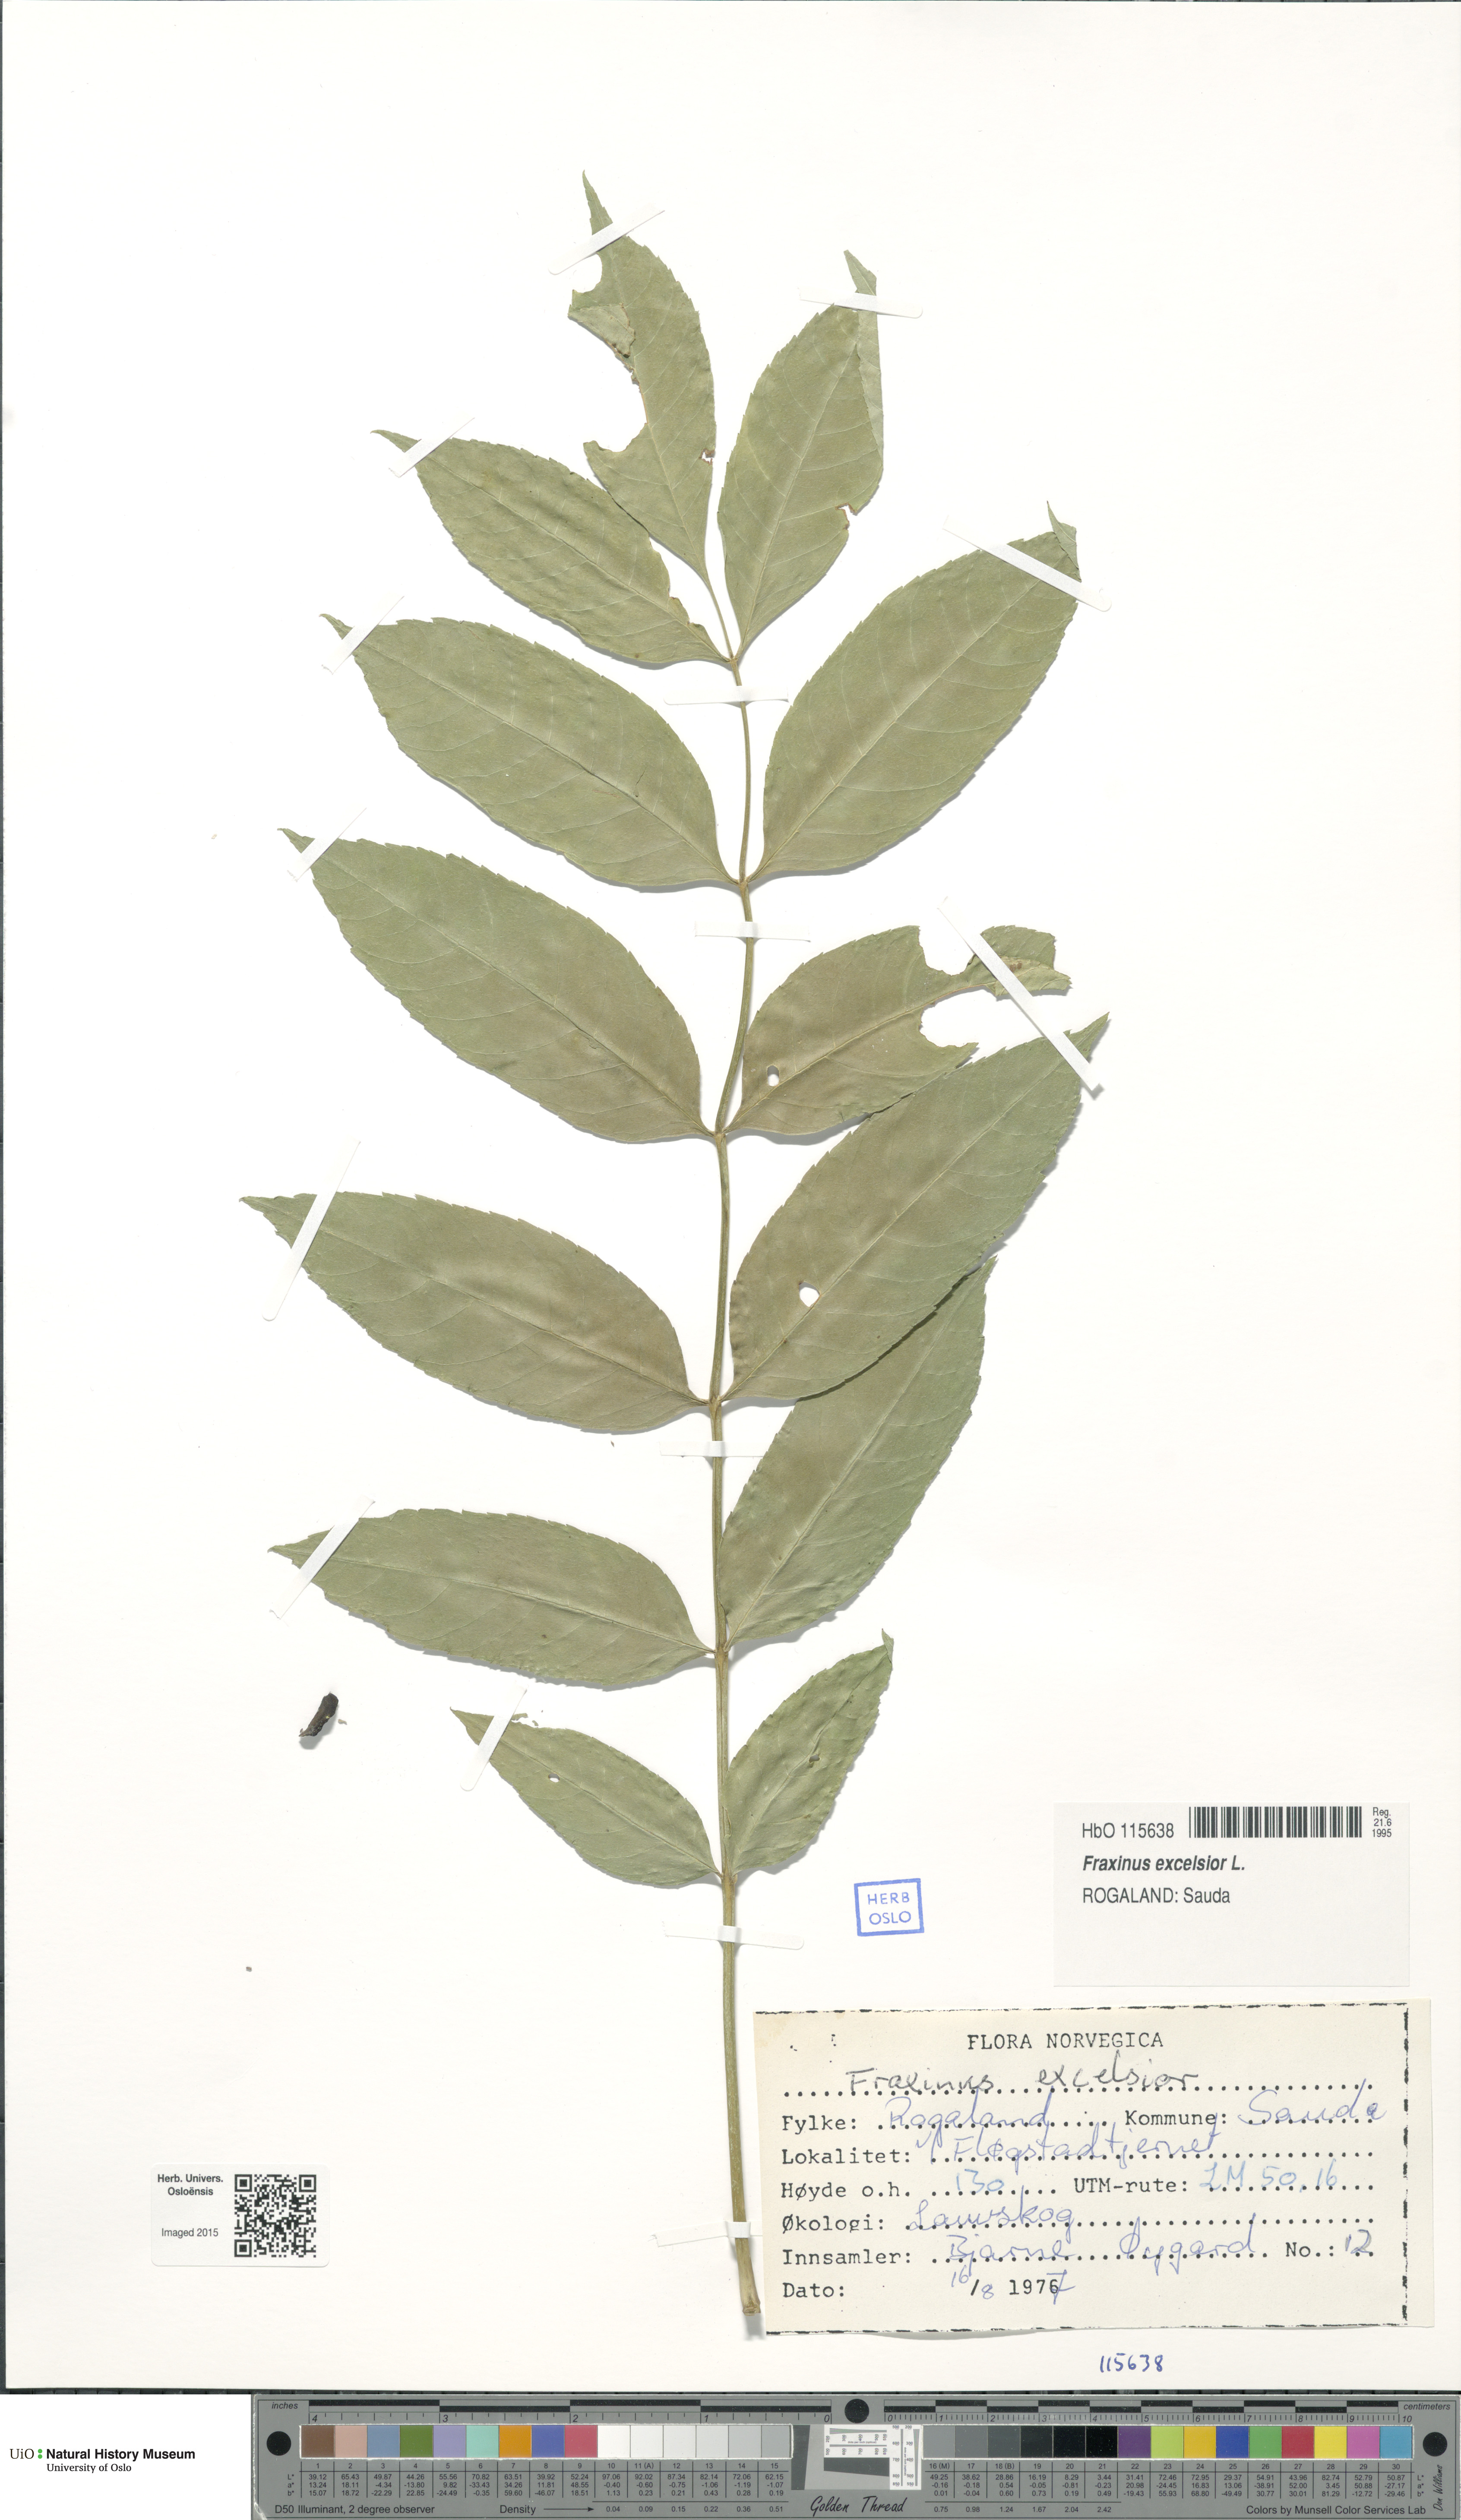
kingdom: Plantae
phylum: Tracheophyta
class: Magnoliopsida
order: Lamiales
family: Oleaceae
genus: Fraxinus
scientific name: Fraxinus excelsior
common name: European ash
